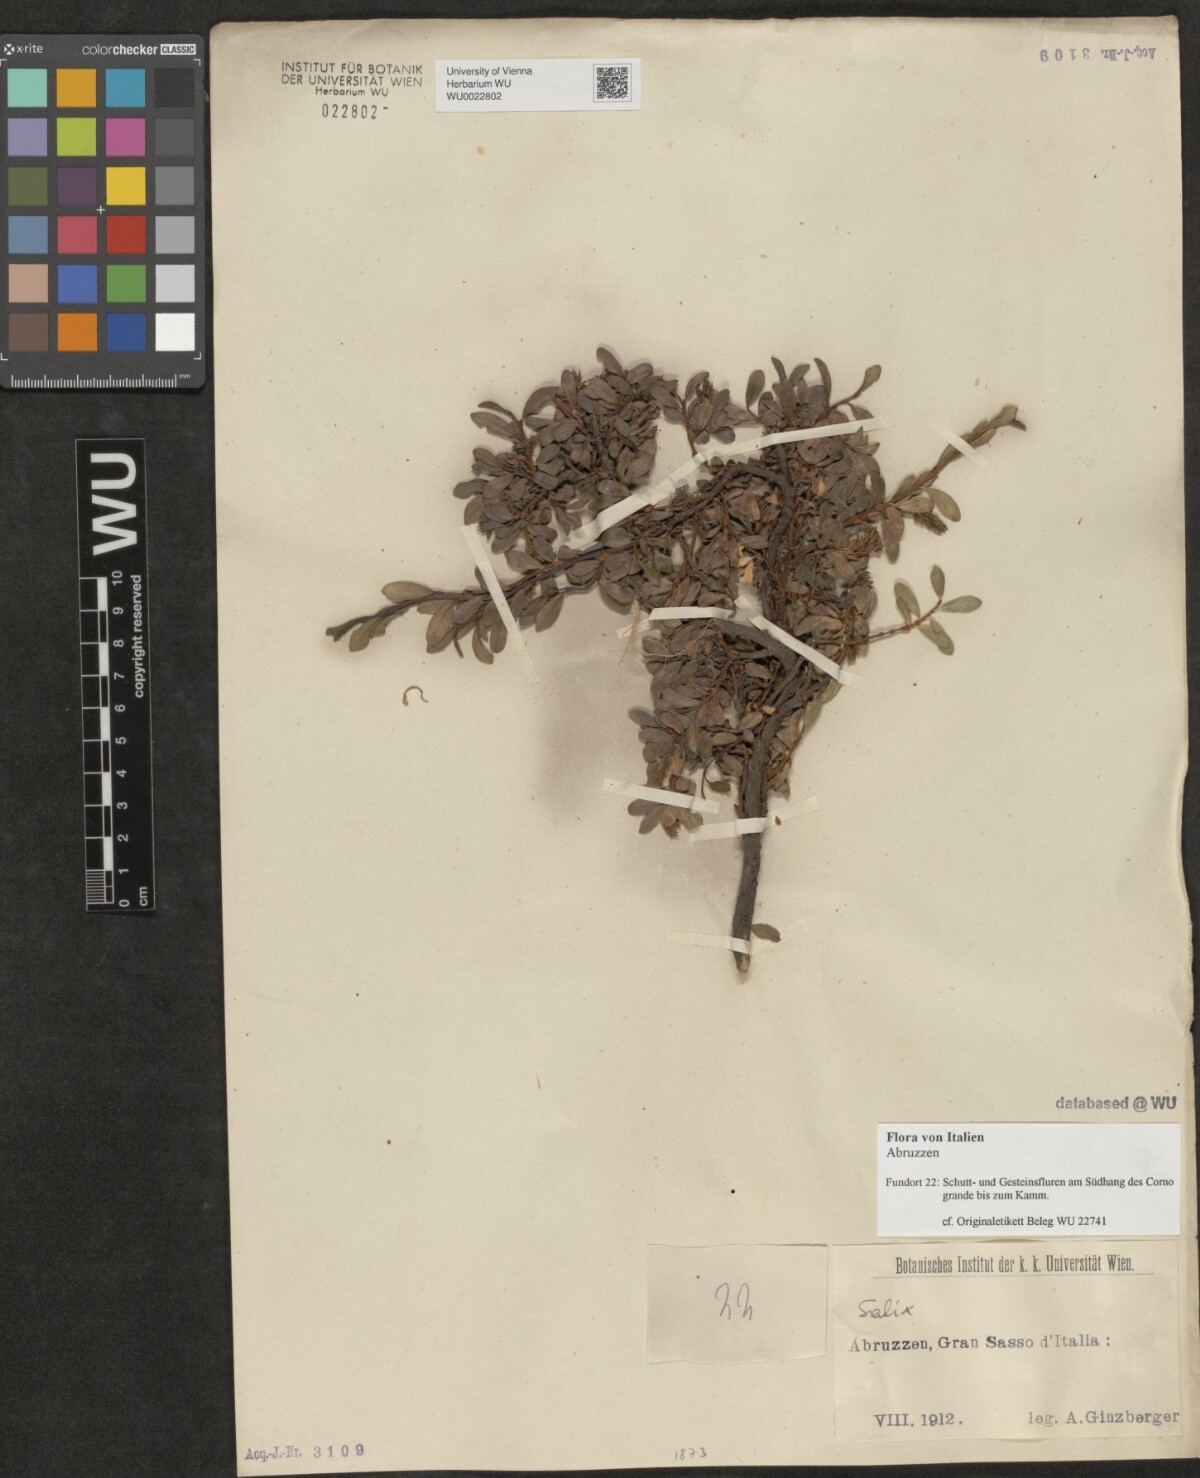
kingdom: Plantae
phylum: Tracheophyta
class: Magnoliopsida
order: Malpighiales
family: Salicaceae
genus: Salix
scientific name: Salix
